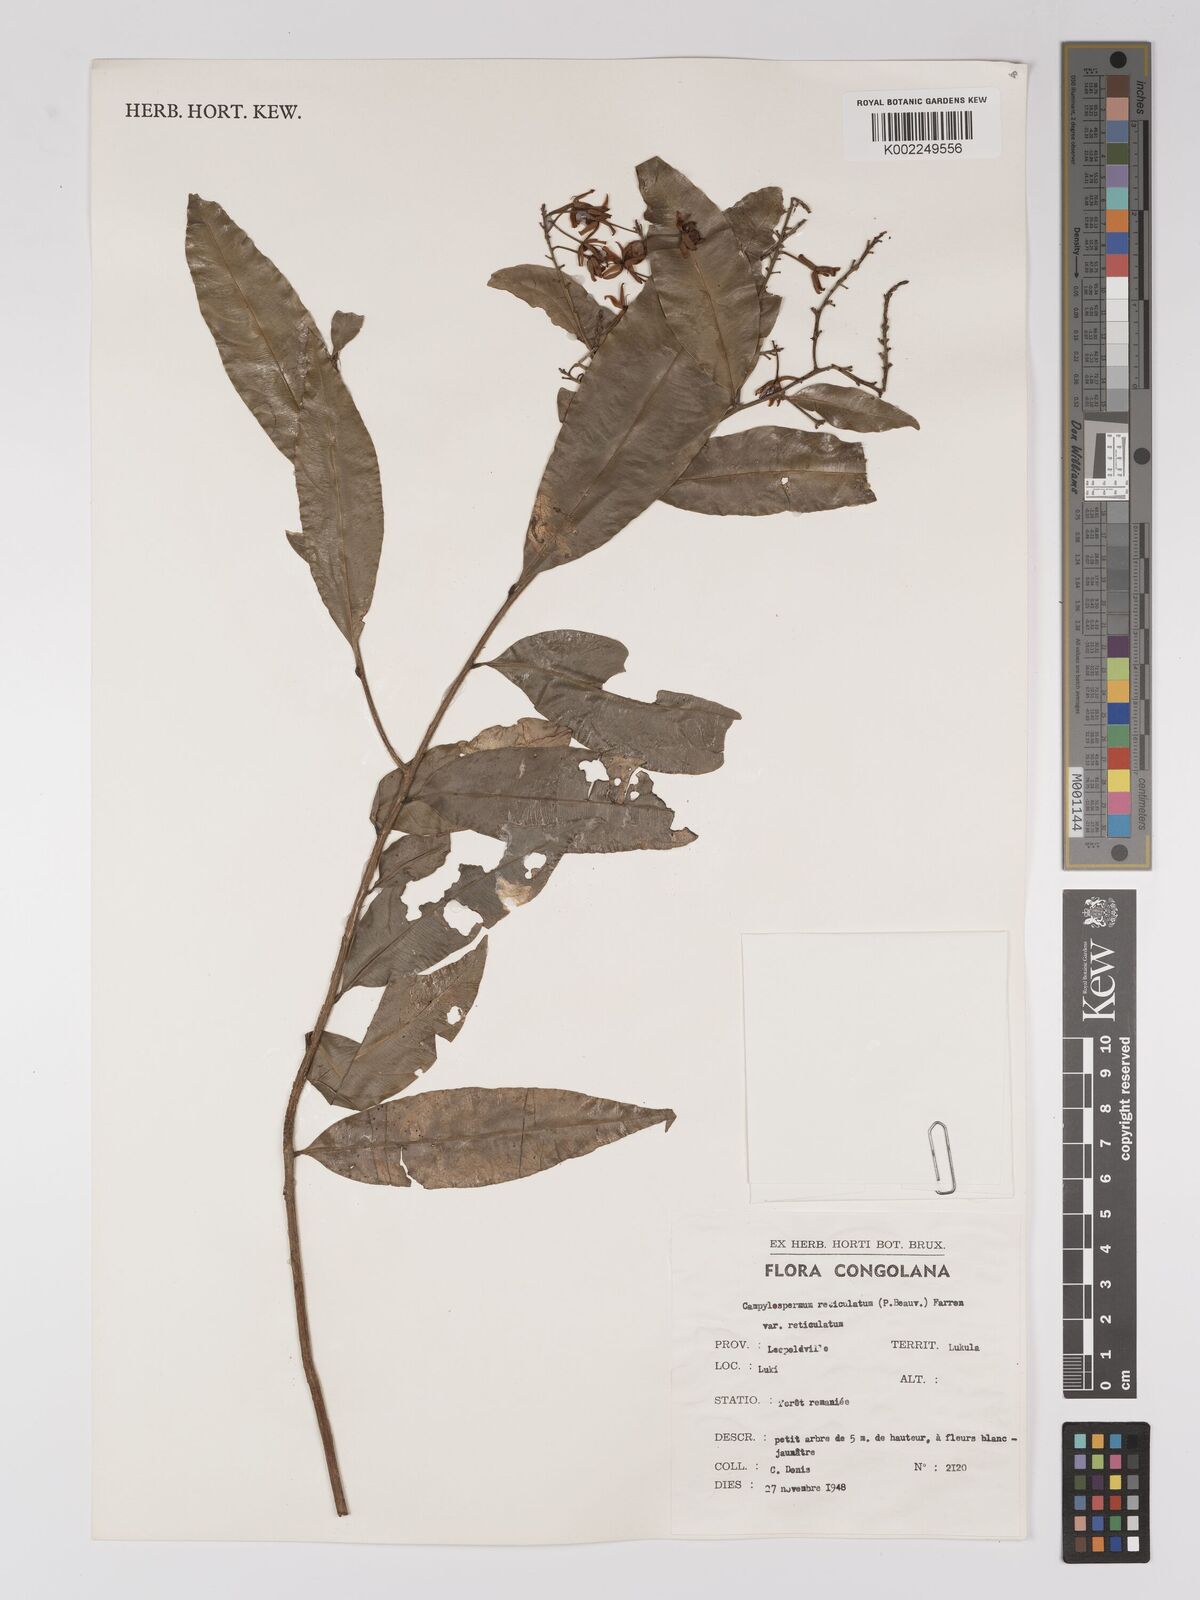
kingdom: Plantae
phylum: Tracheophyta
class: Magnoliopsida
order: Malpighiales
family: Ochnaceae
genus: Campylospermum
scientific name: Campylospermum reticulatum
